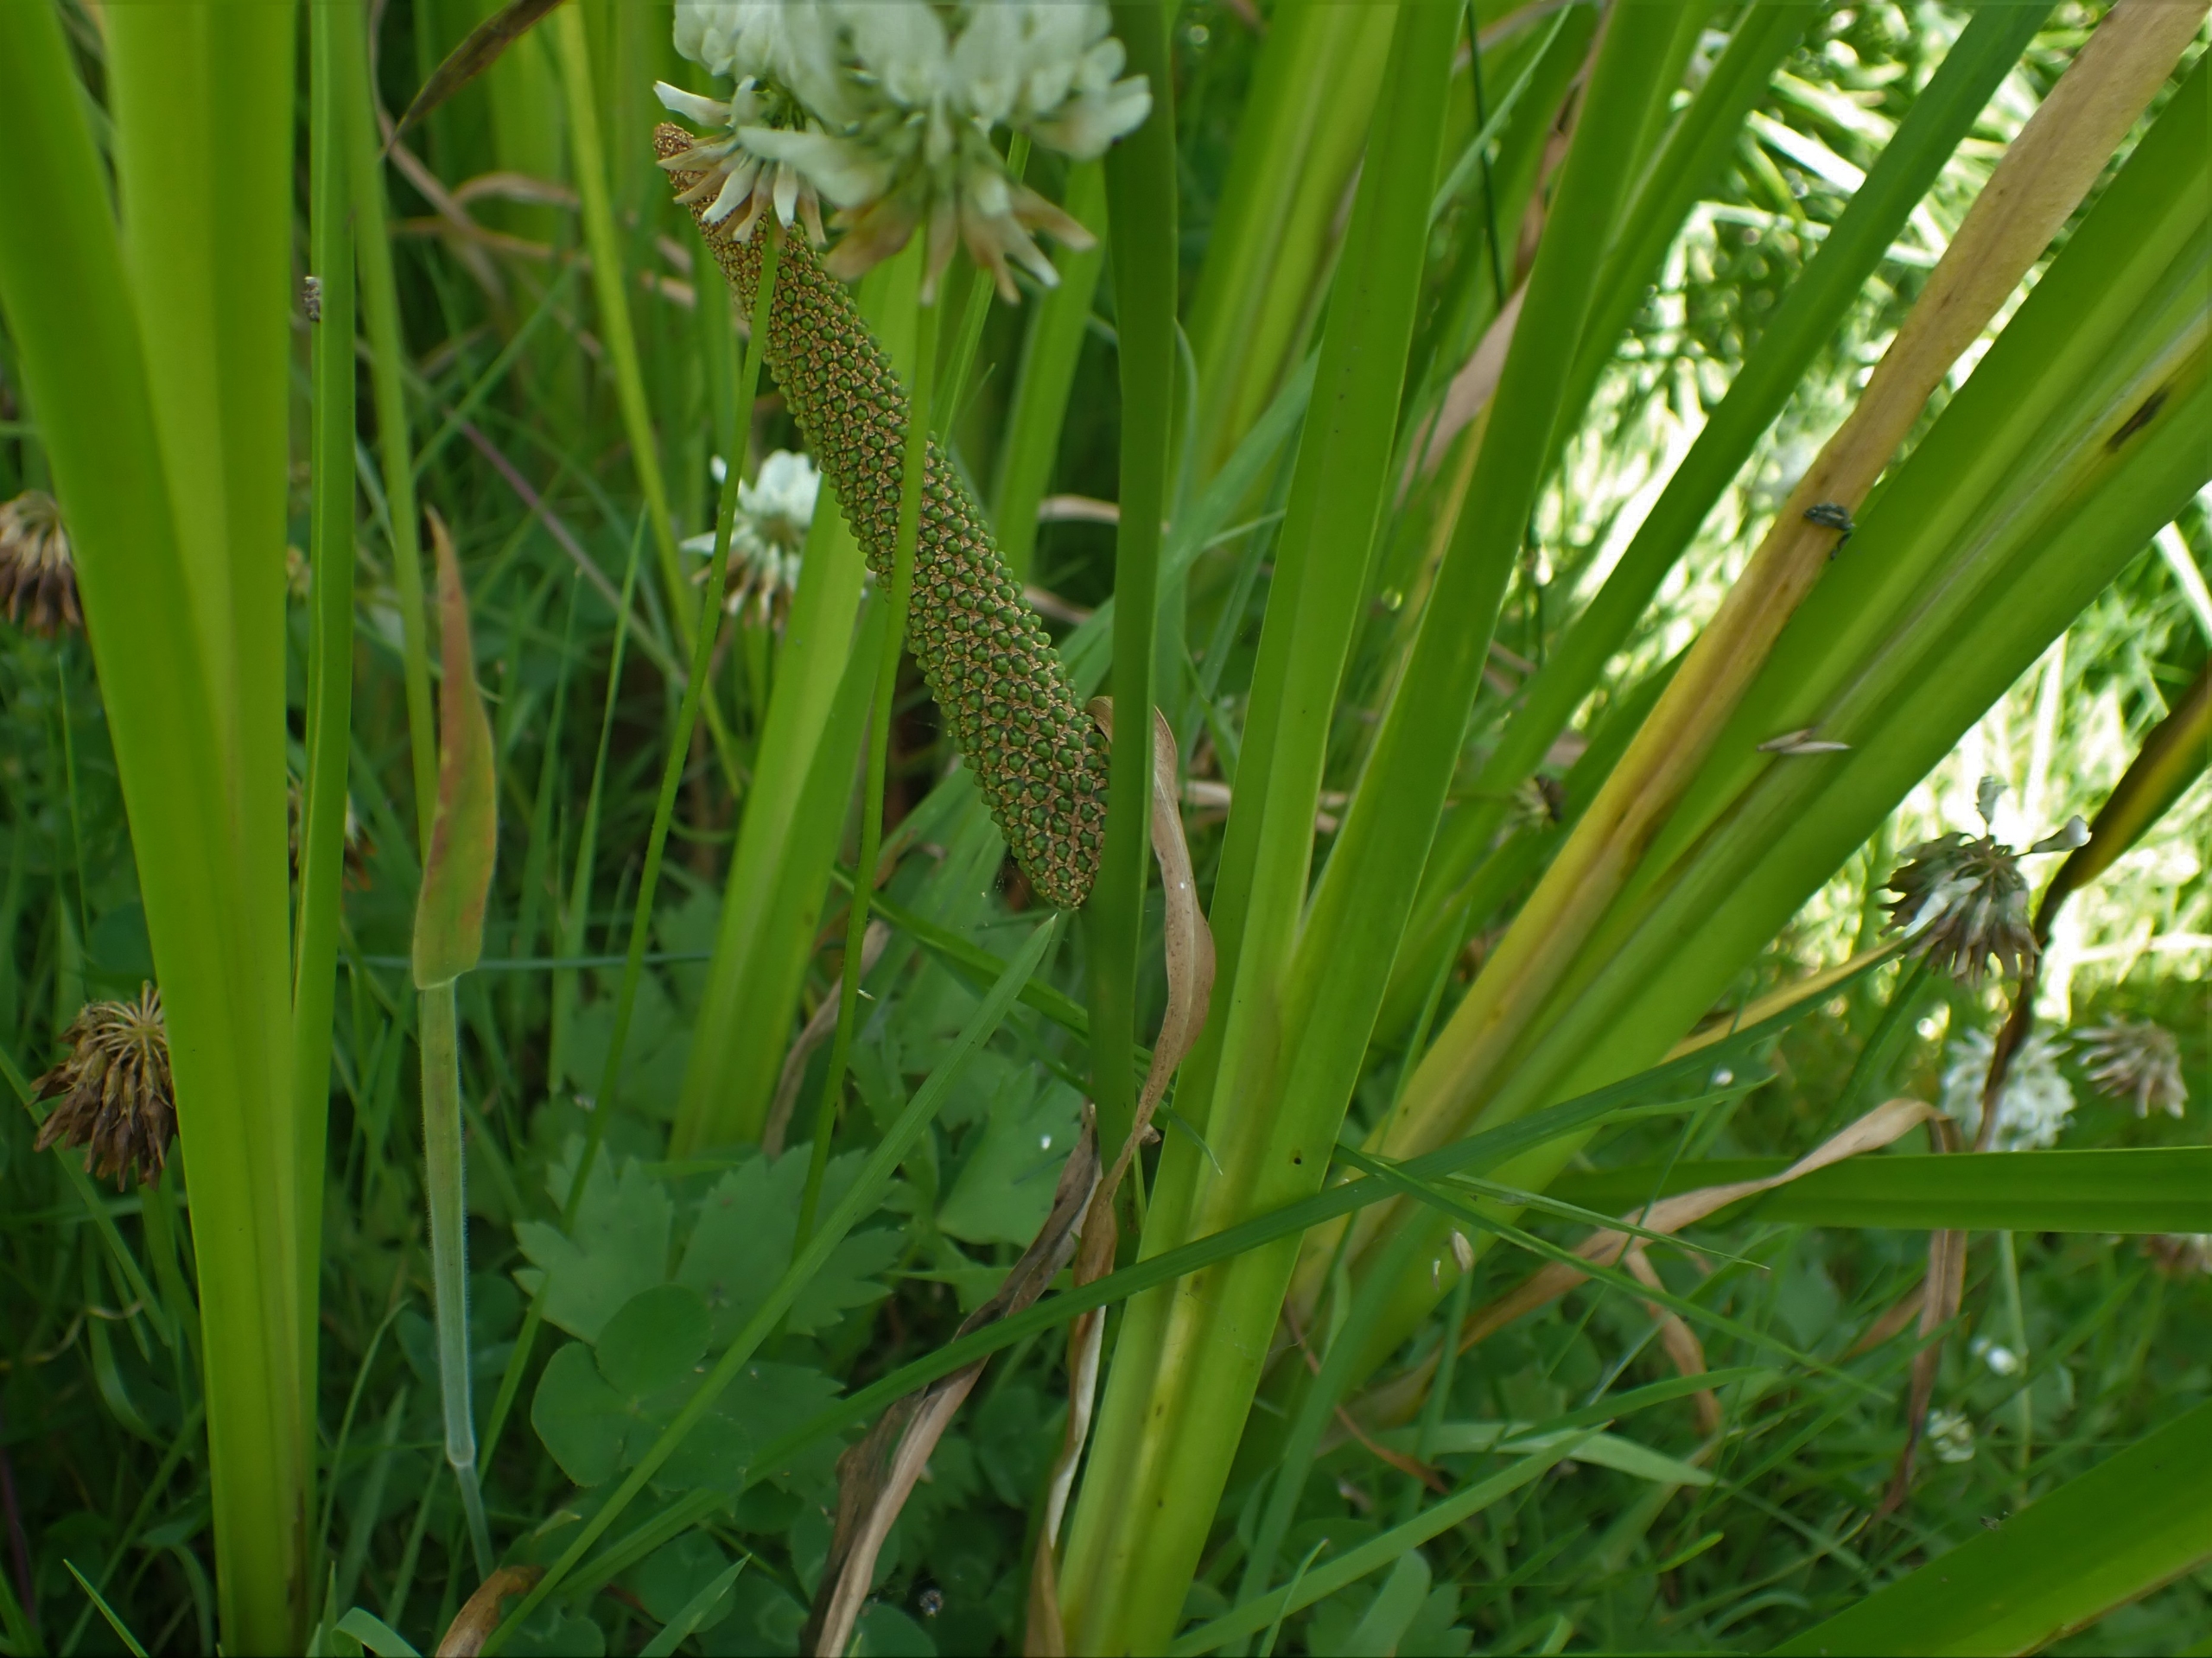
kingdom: Plantae
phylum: Tracheophyta
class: Liliopsida
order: Acorales
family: Acoraceae
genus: Acorus
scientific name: Acorus calamus
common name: Kalmus
